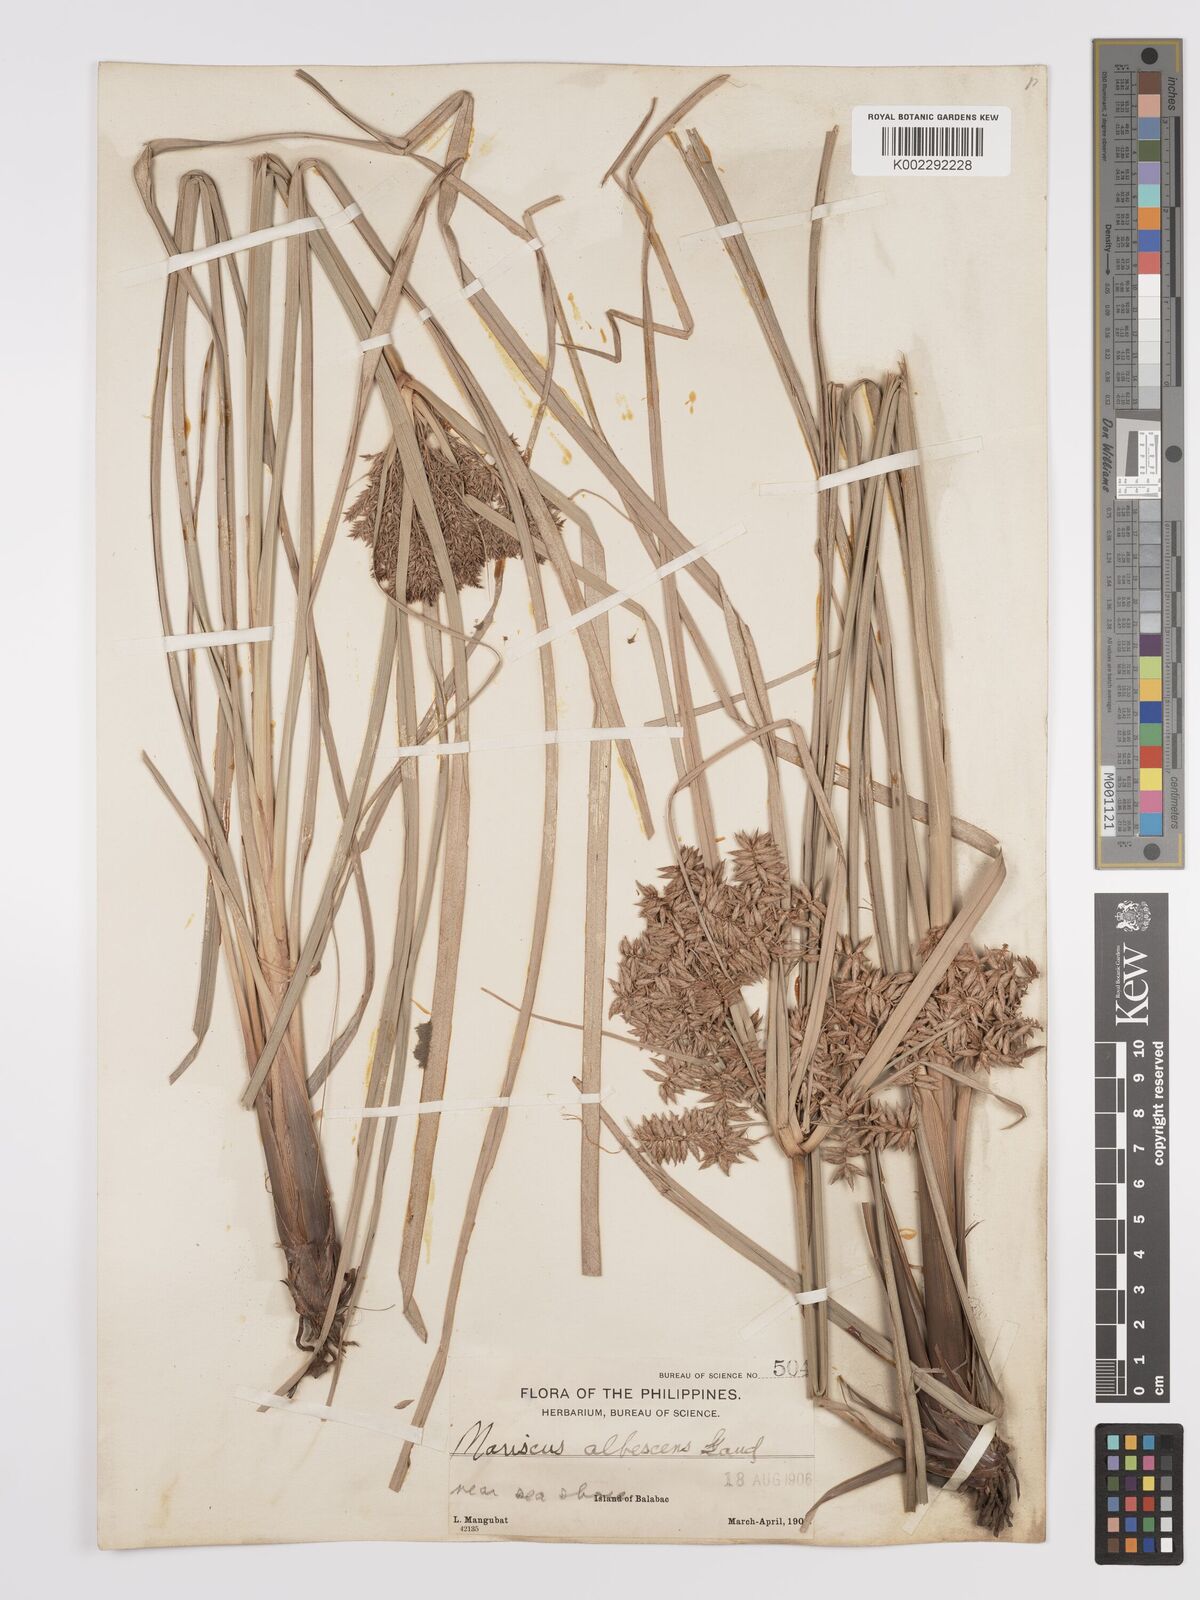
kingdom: Plantae
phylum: Tracheophyta
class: Liliopsida
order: Poales
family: Cyperaceae
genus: Cyperus
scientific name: Cyperus javanicus
